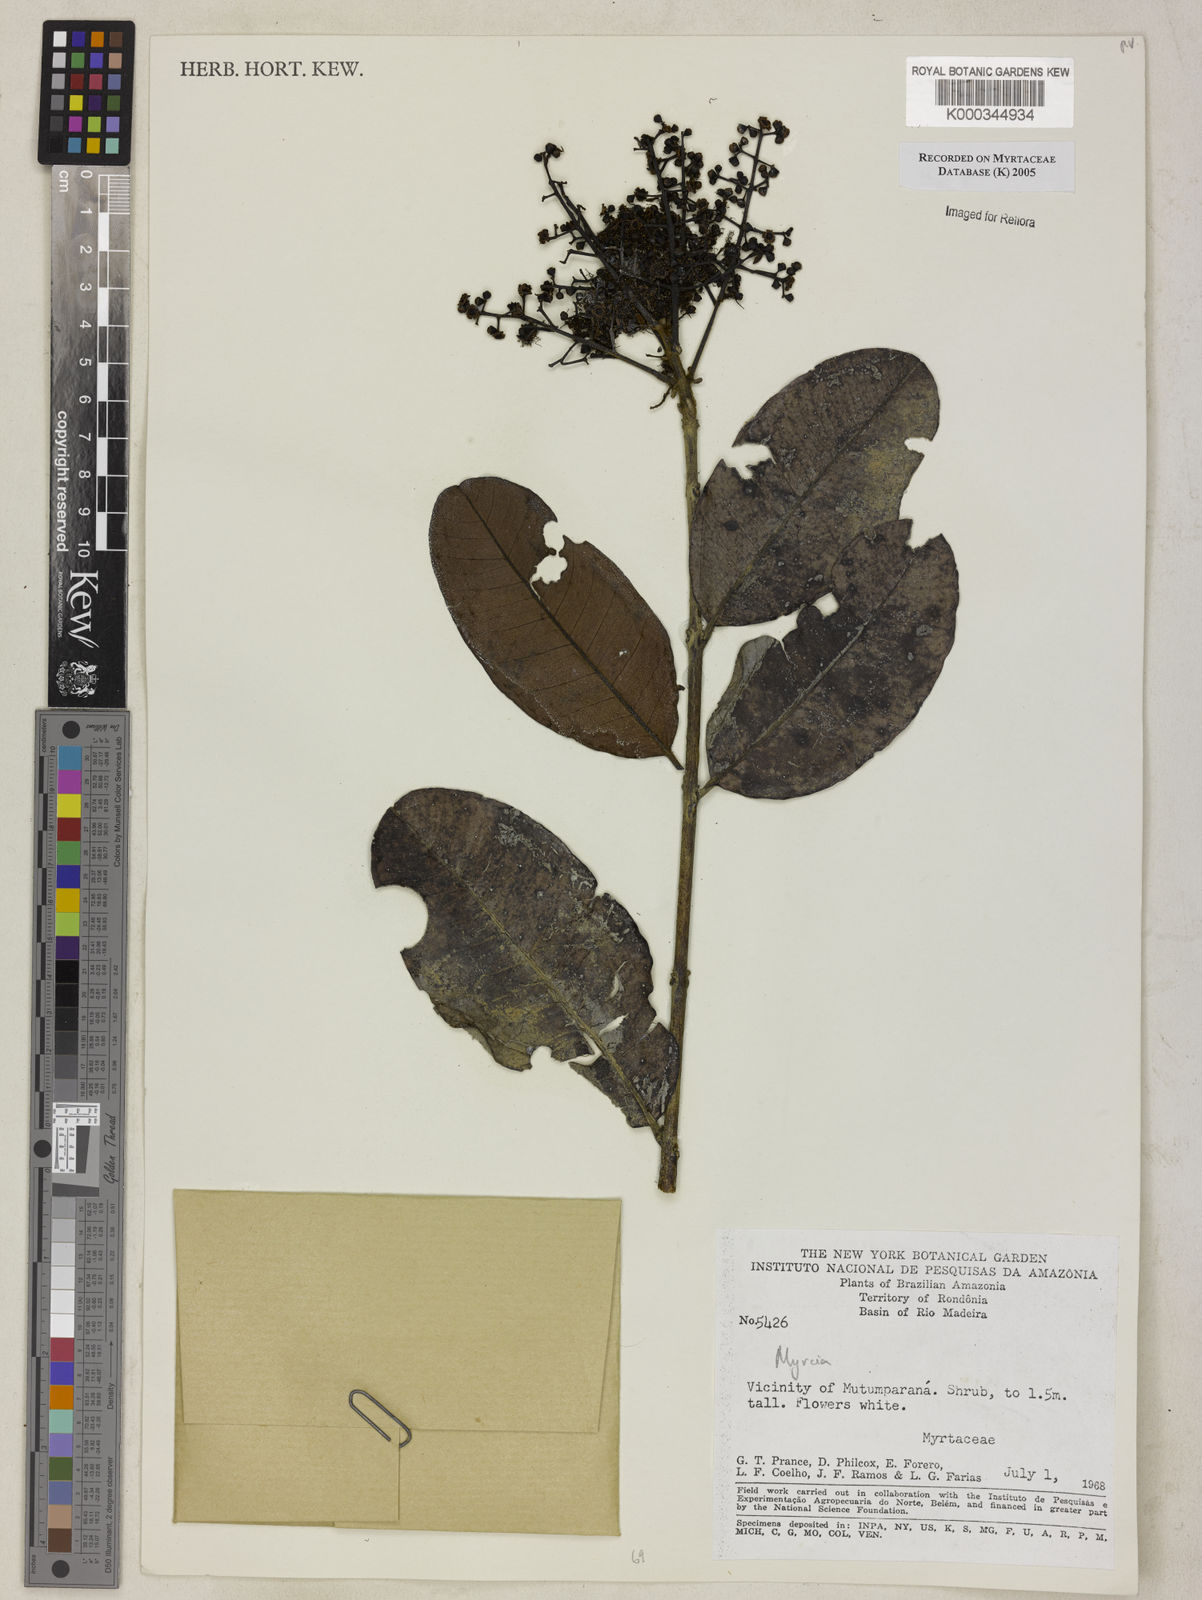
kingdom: Plantae
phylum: Tracheophyta
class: Magnoliopsida
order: Myrtales
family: Myrtaceae
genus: Myrcia
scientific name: Myrcia
